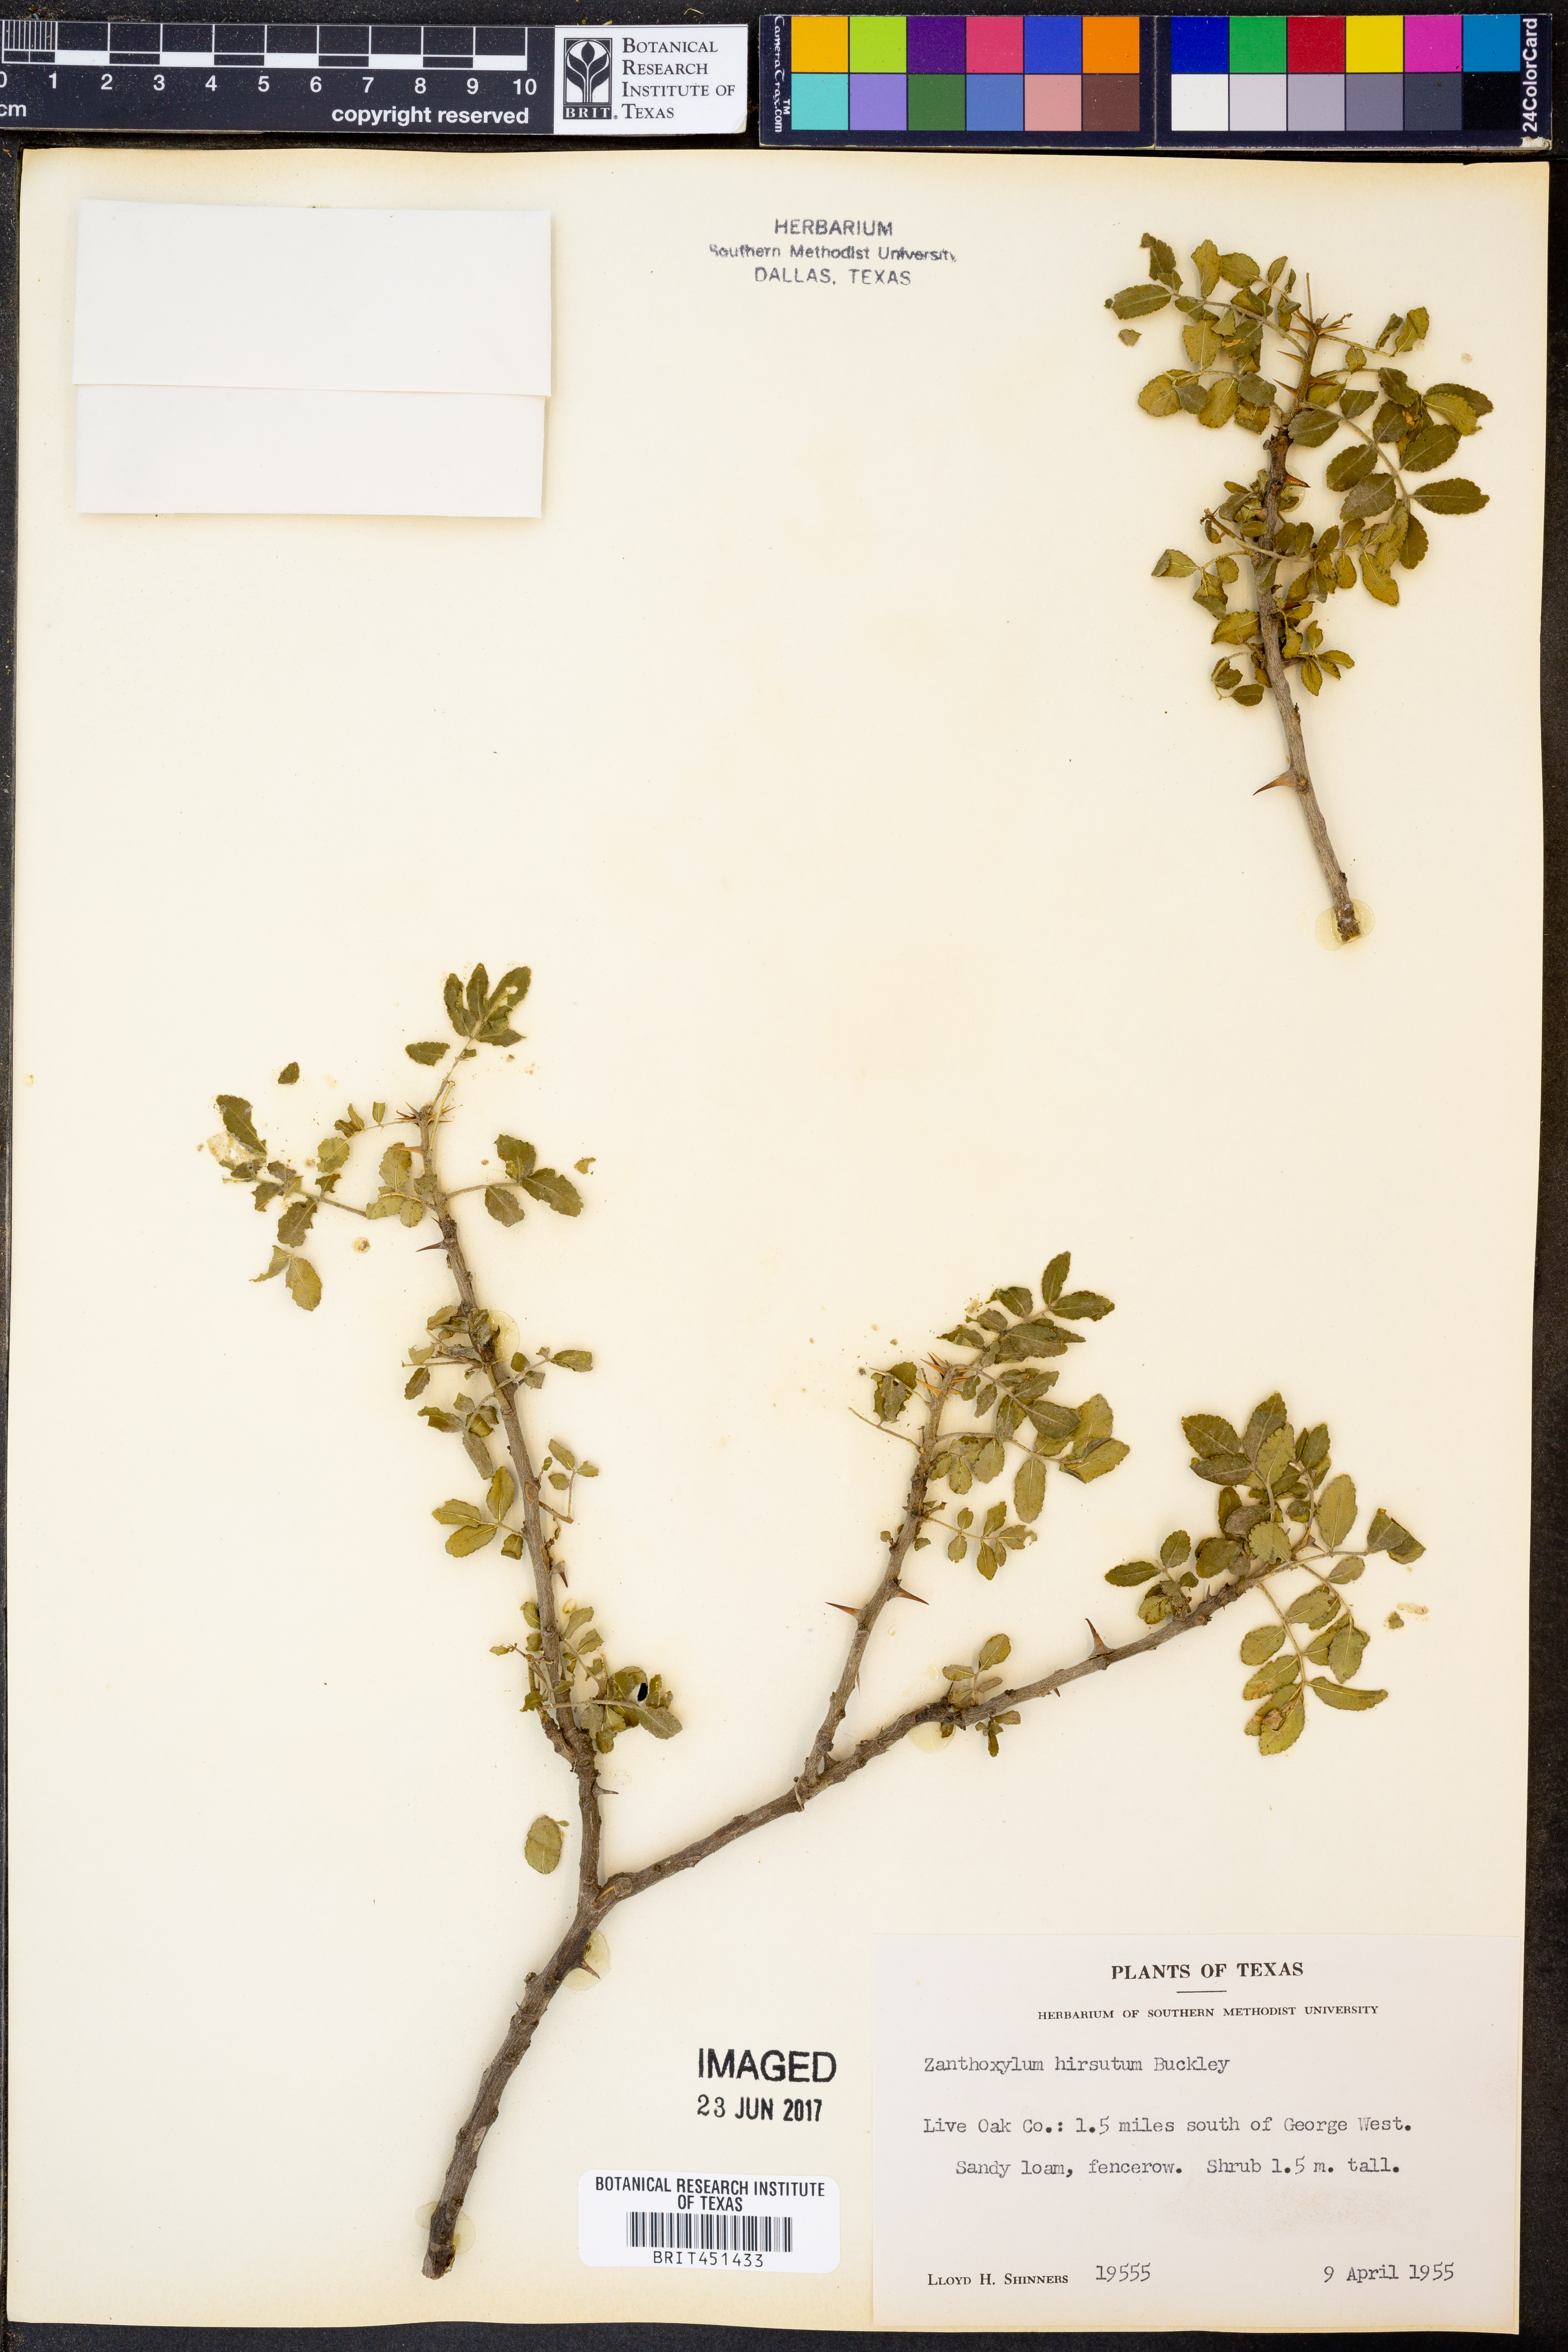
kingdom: Plantae
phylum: Tracheophyta
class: Magnoliopsida
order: Sapindales
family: Rutaceae
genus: Zanthoxylum
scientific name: Zanthoxylum clava-herculis
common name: Hercules'-club
